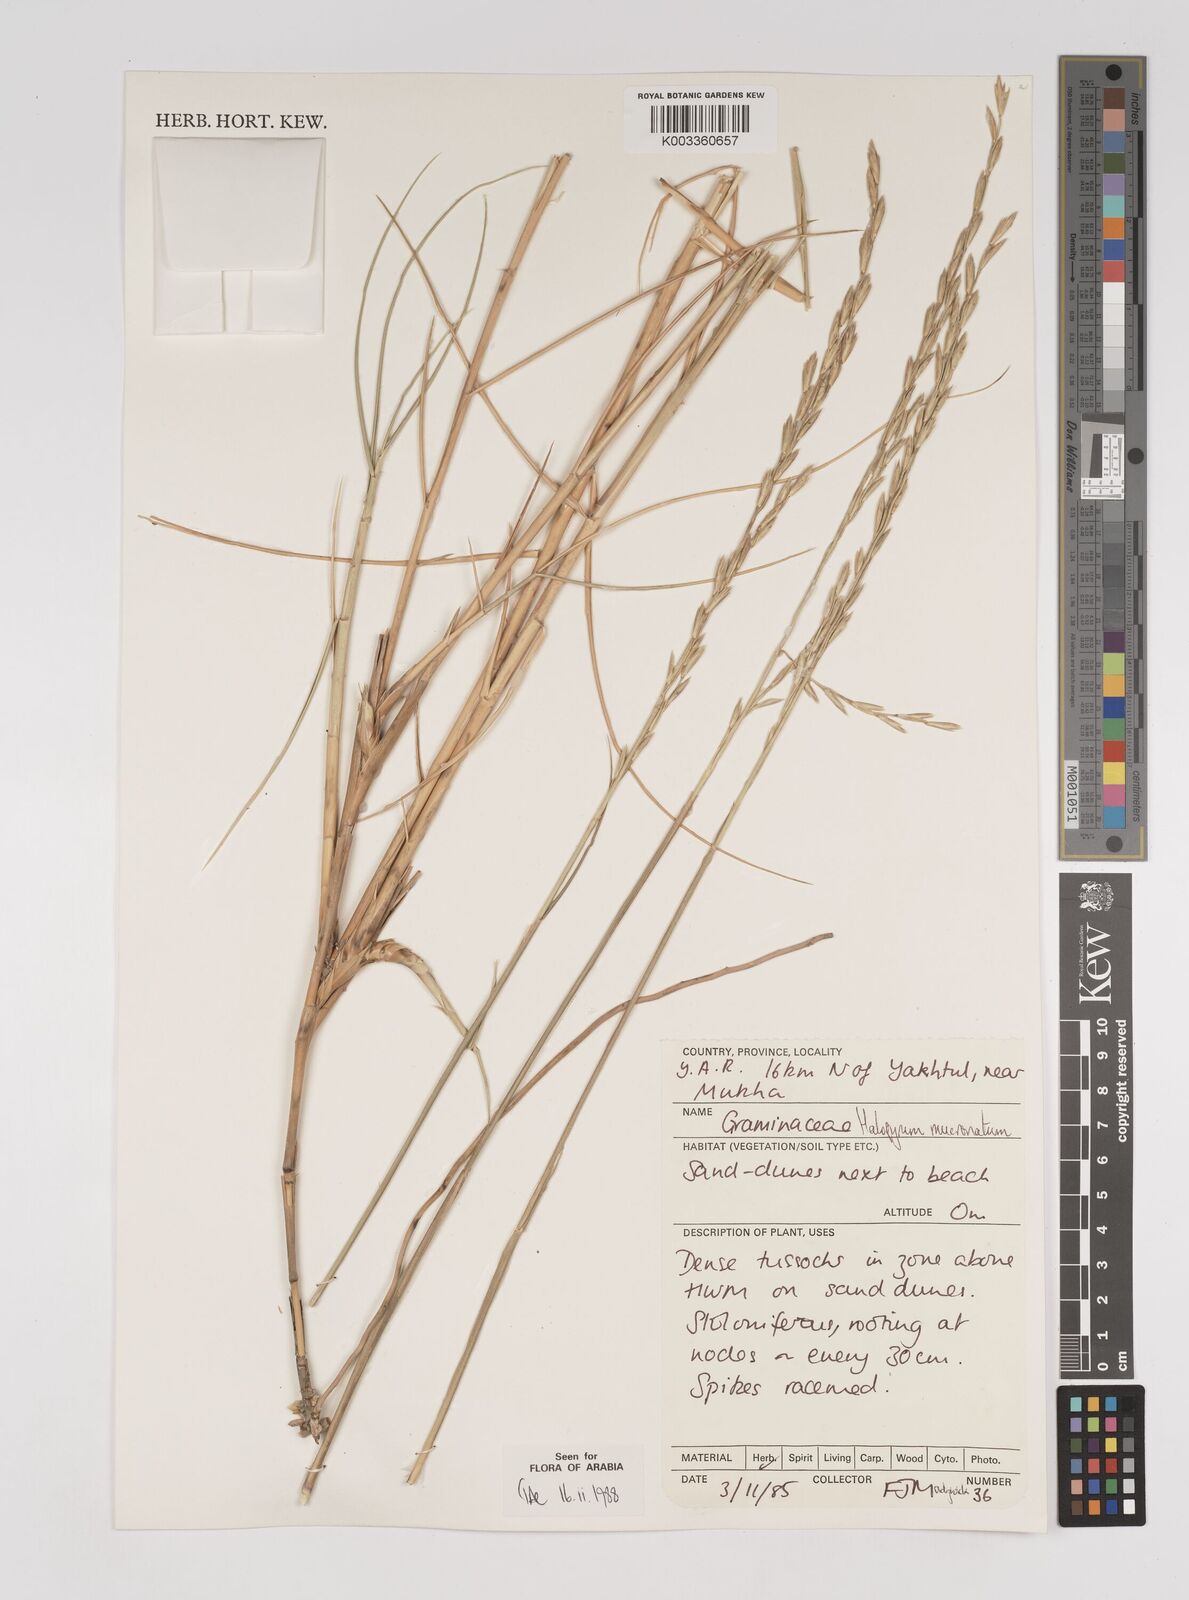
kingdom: Plantae
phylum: Tracheophyta
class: Liliopsida
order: Poales
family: Poaceae
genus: Halopyrum
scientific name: Halopyrum mucronatum
